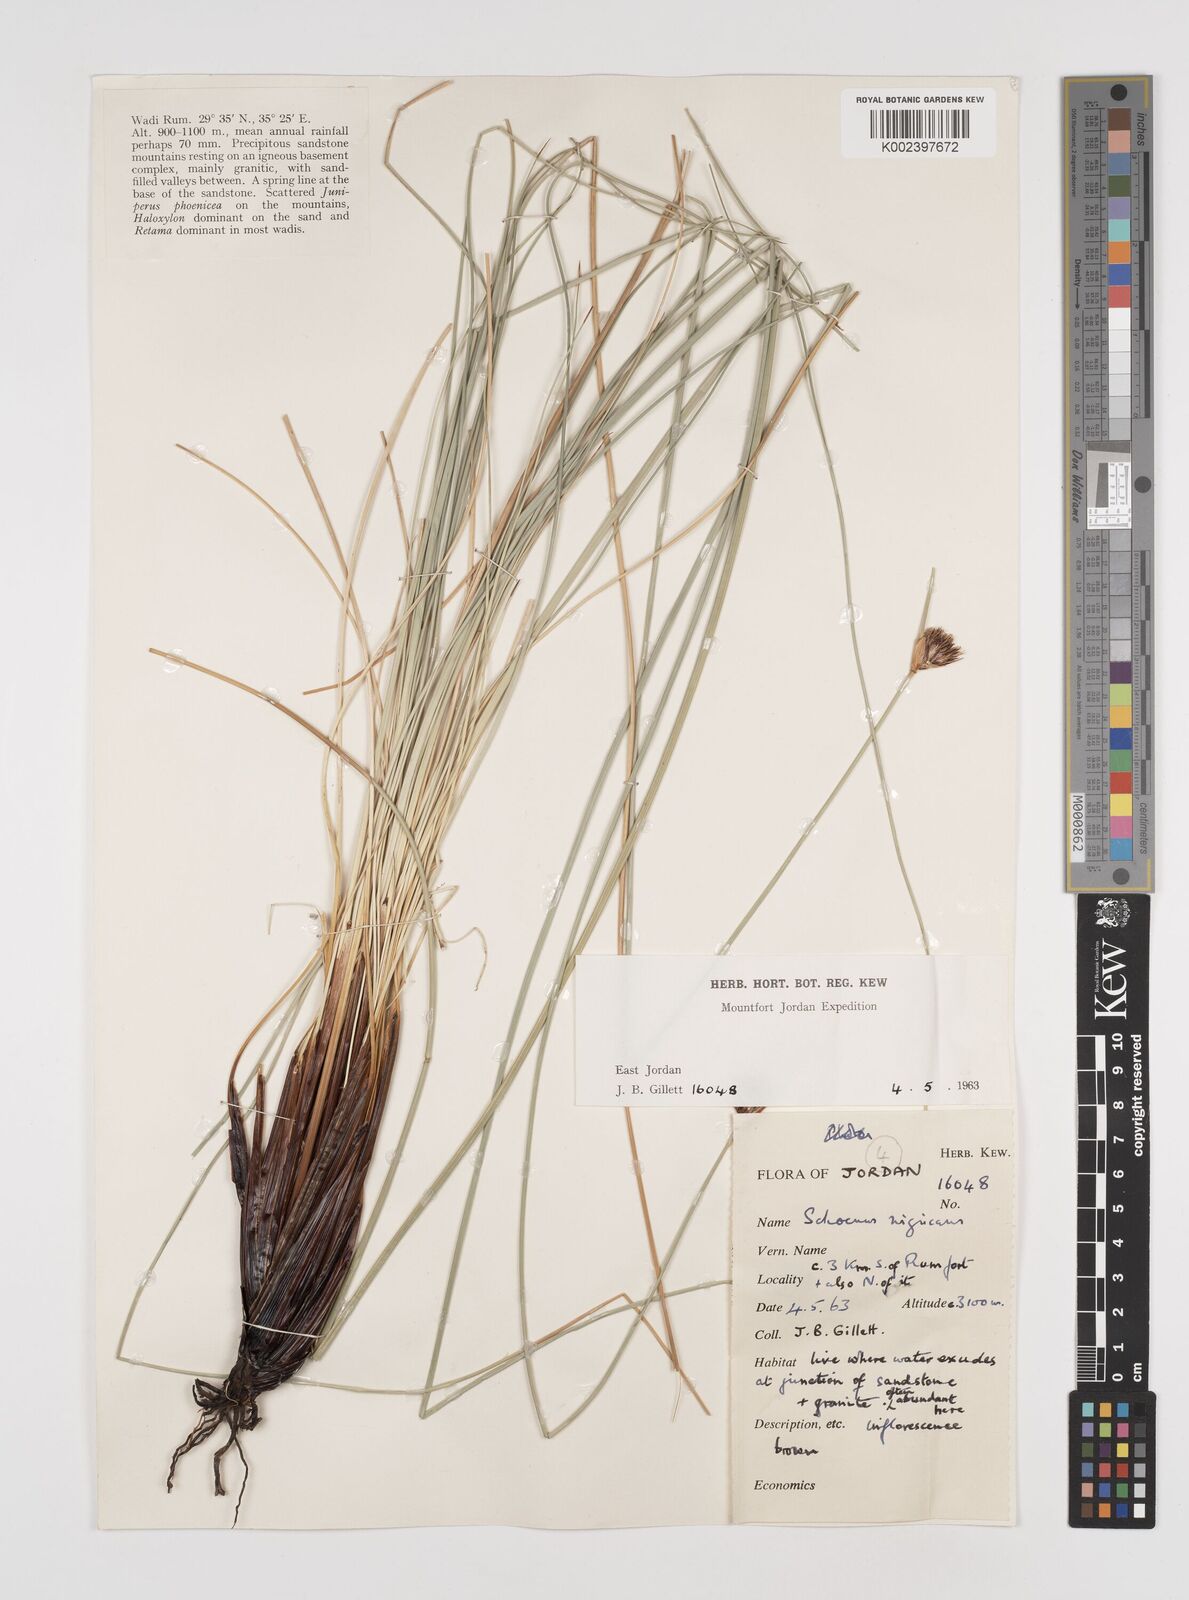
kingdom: Plantae
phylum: Tracheophyta
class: Liliopsida
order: Poales
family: Cyperaceae
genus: Schoenus
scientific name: Schoenus nigricans
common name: Black bog-rush
